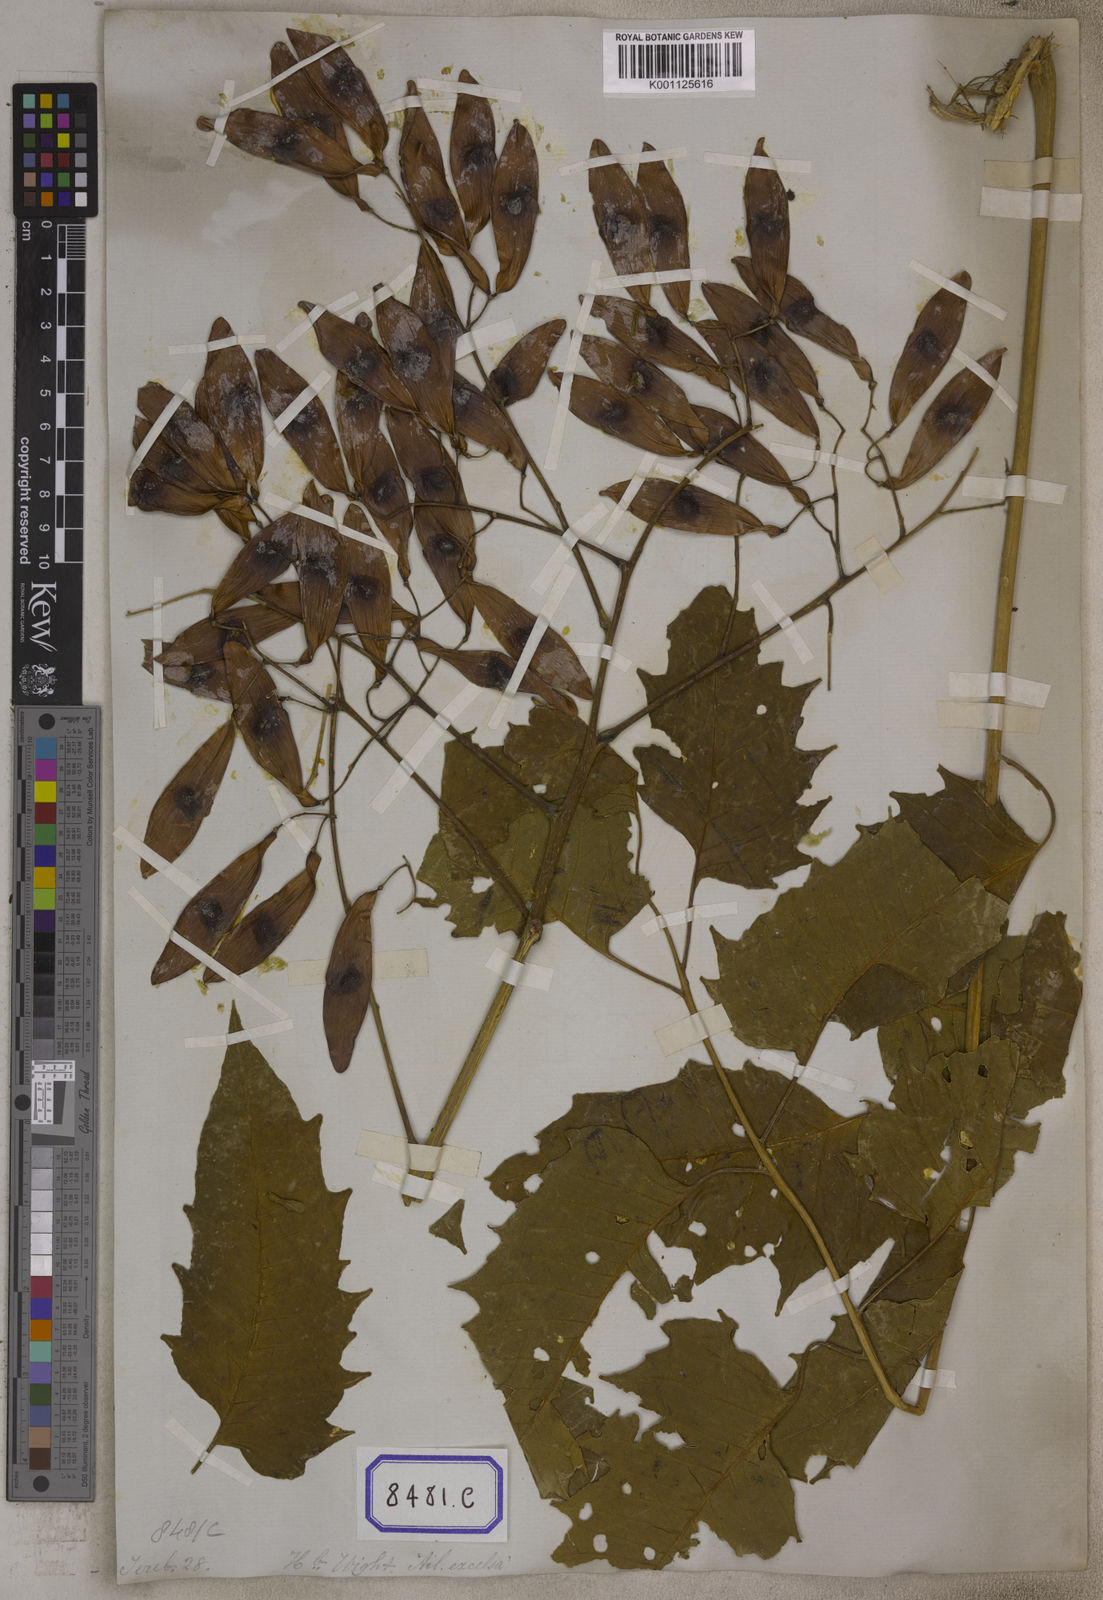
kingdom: Plantae
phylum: Tracheophyta
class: Magnoliopsida
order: Sapindales
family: Simaroubaceae
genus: Ailanthus
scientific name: Ailanthus excelsa
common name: Indian tree-of-heaven
